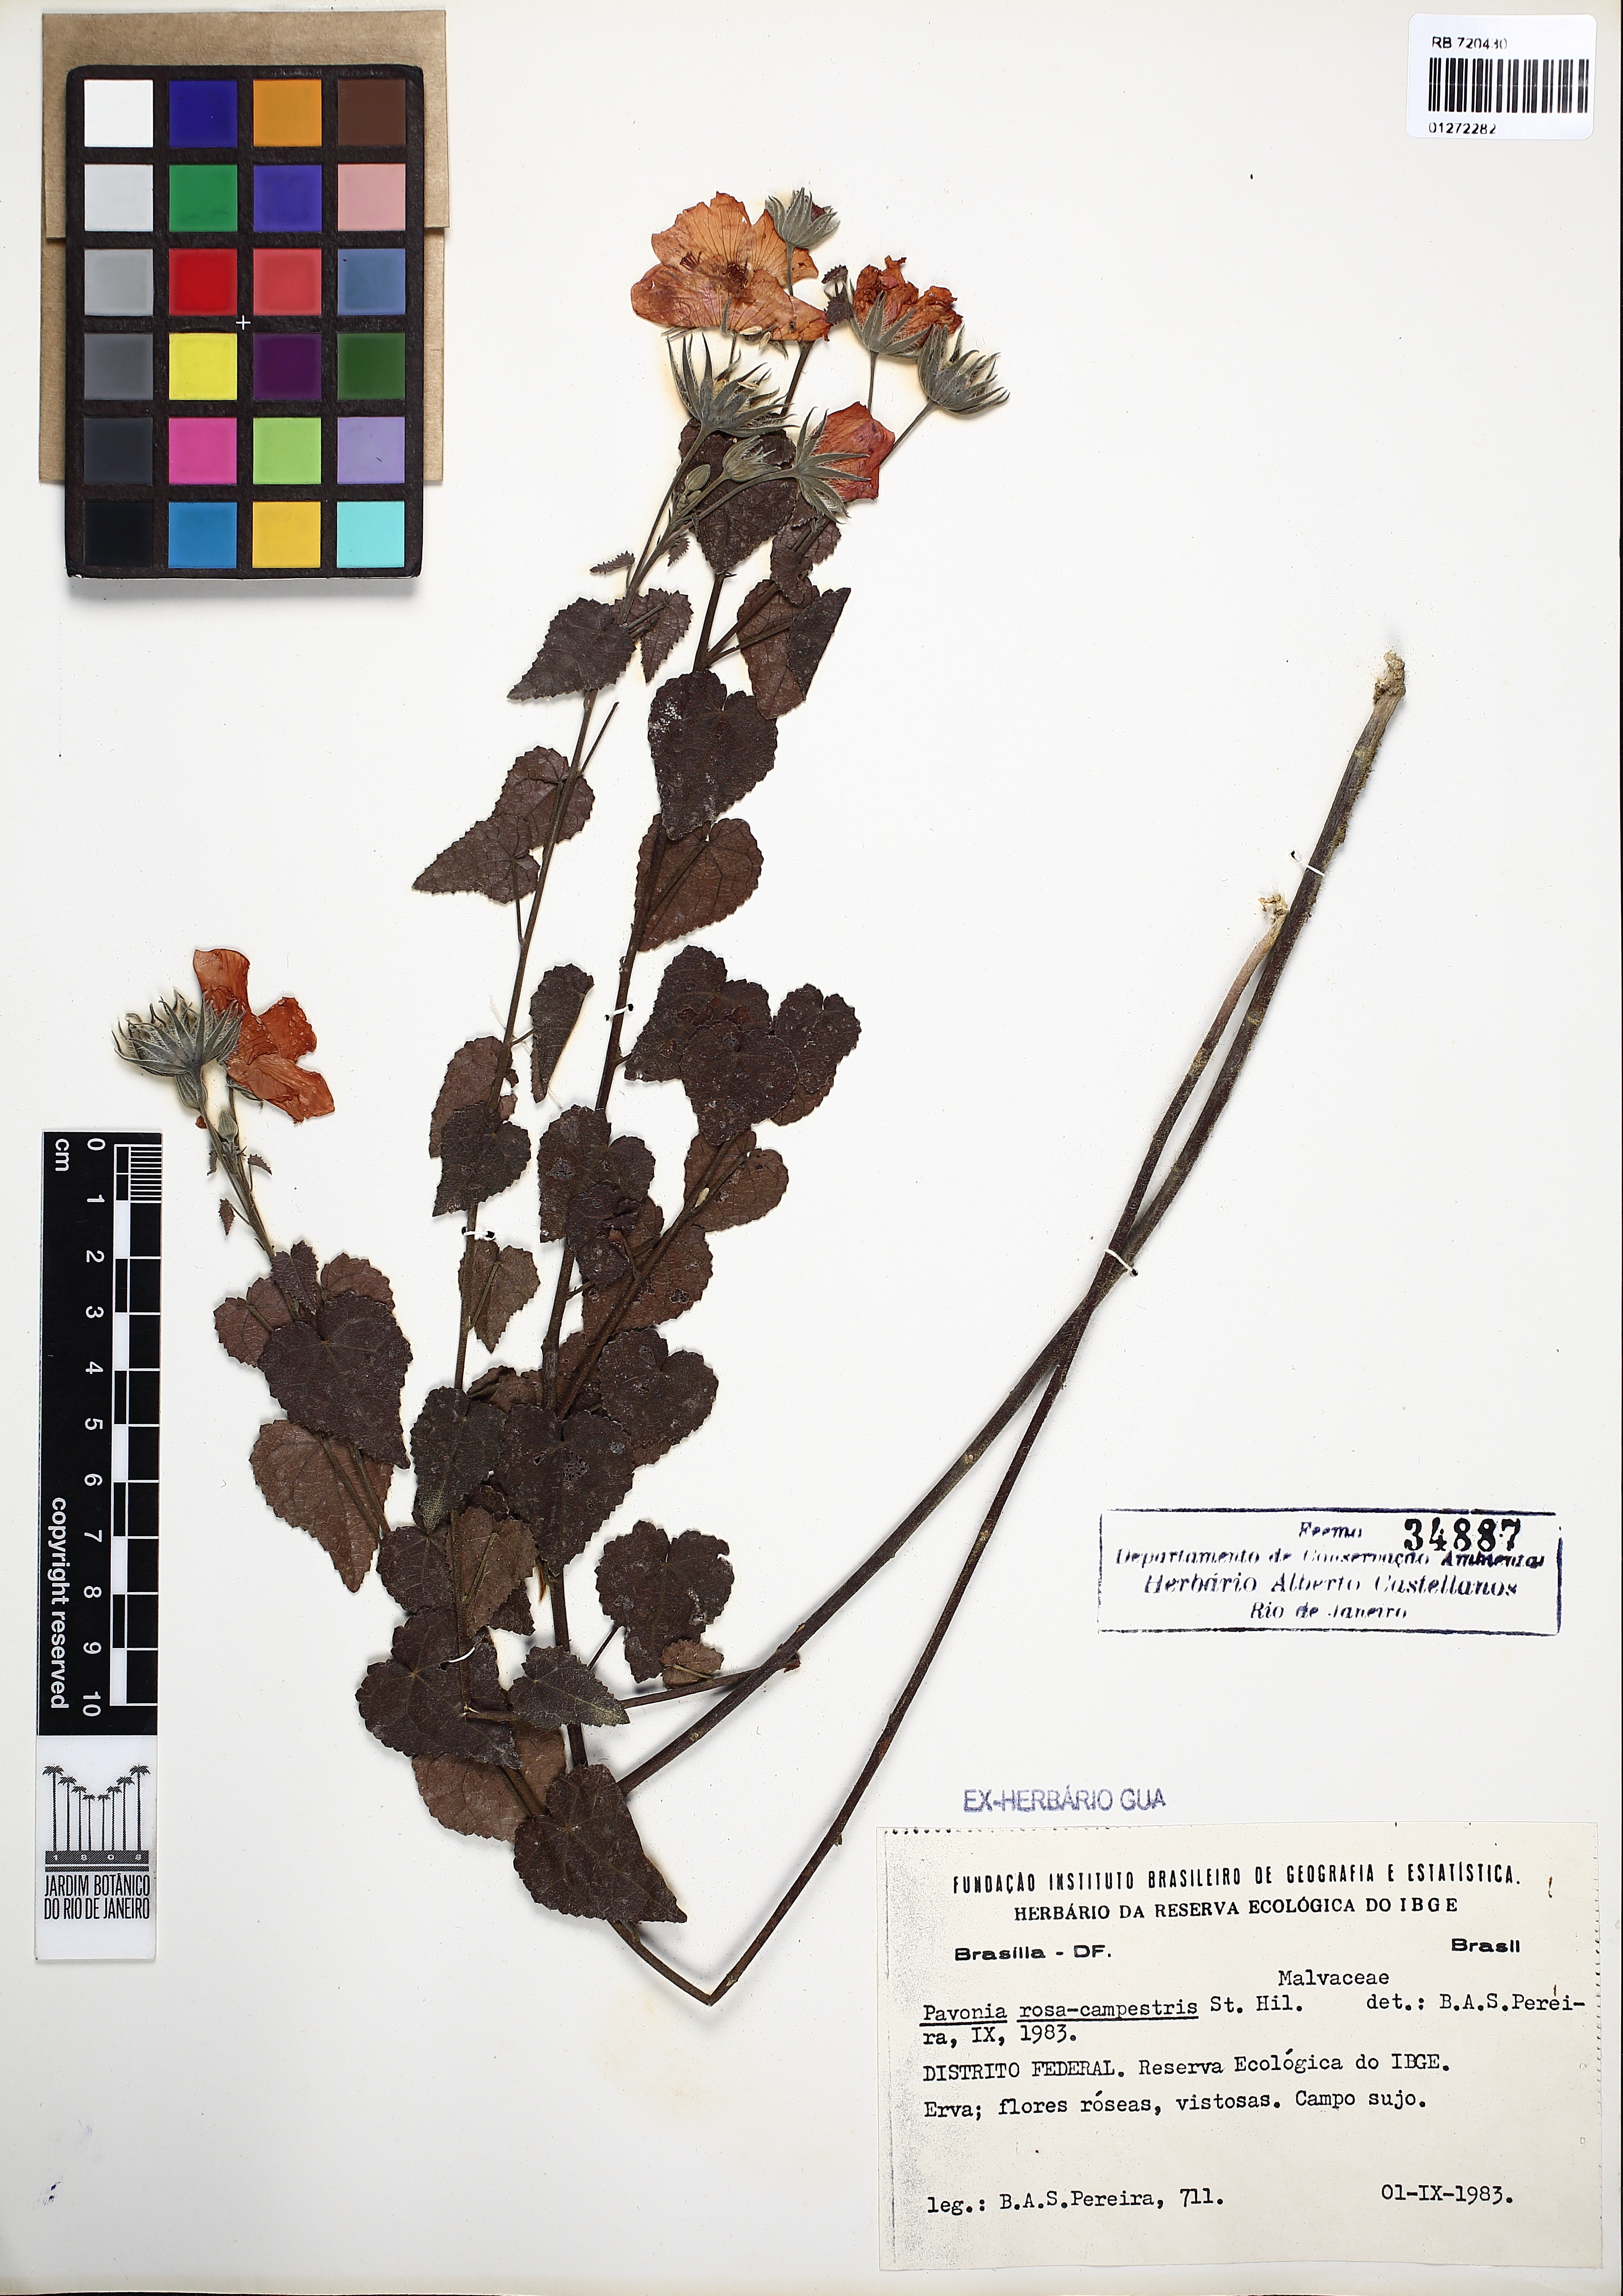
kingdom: Plantae
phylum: Tracheophyta
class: Magnoliopsida
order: Malvales
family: Malvaceae
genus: Pavonia
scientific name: Pavonia rosa-campestris
